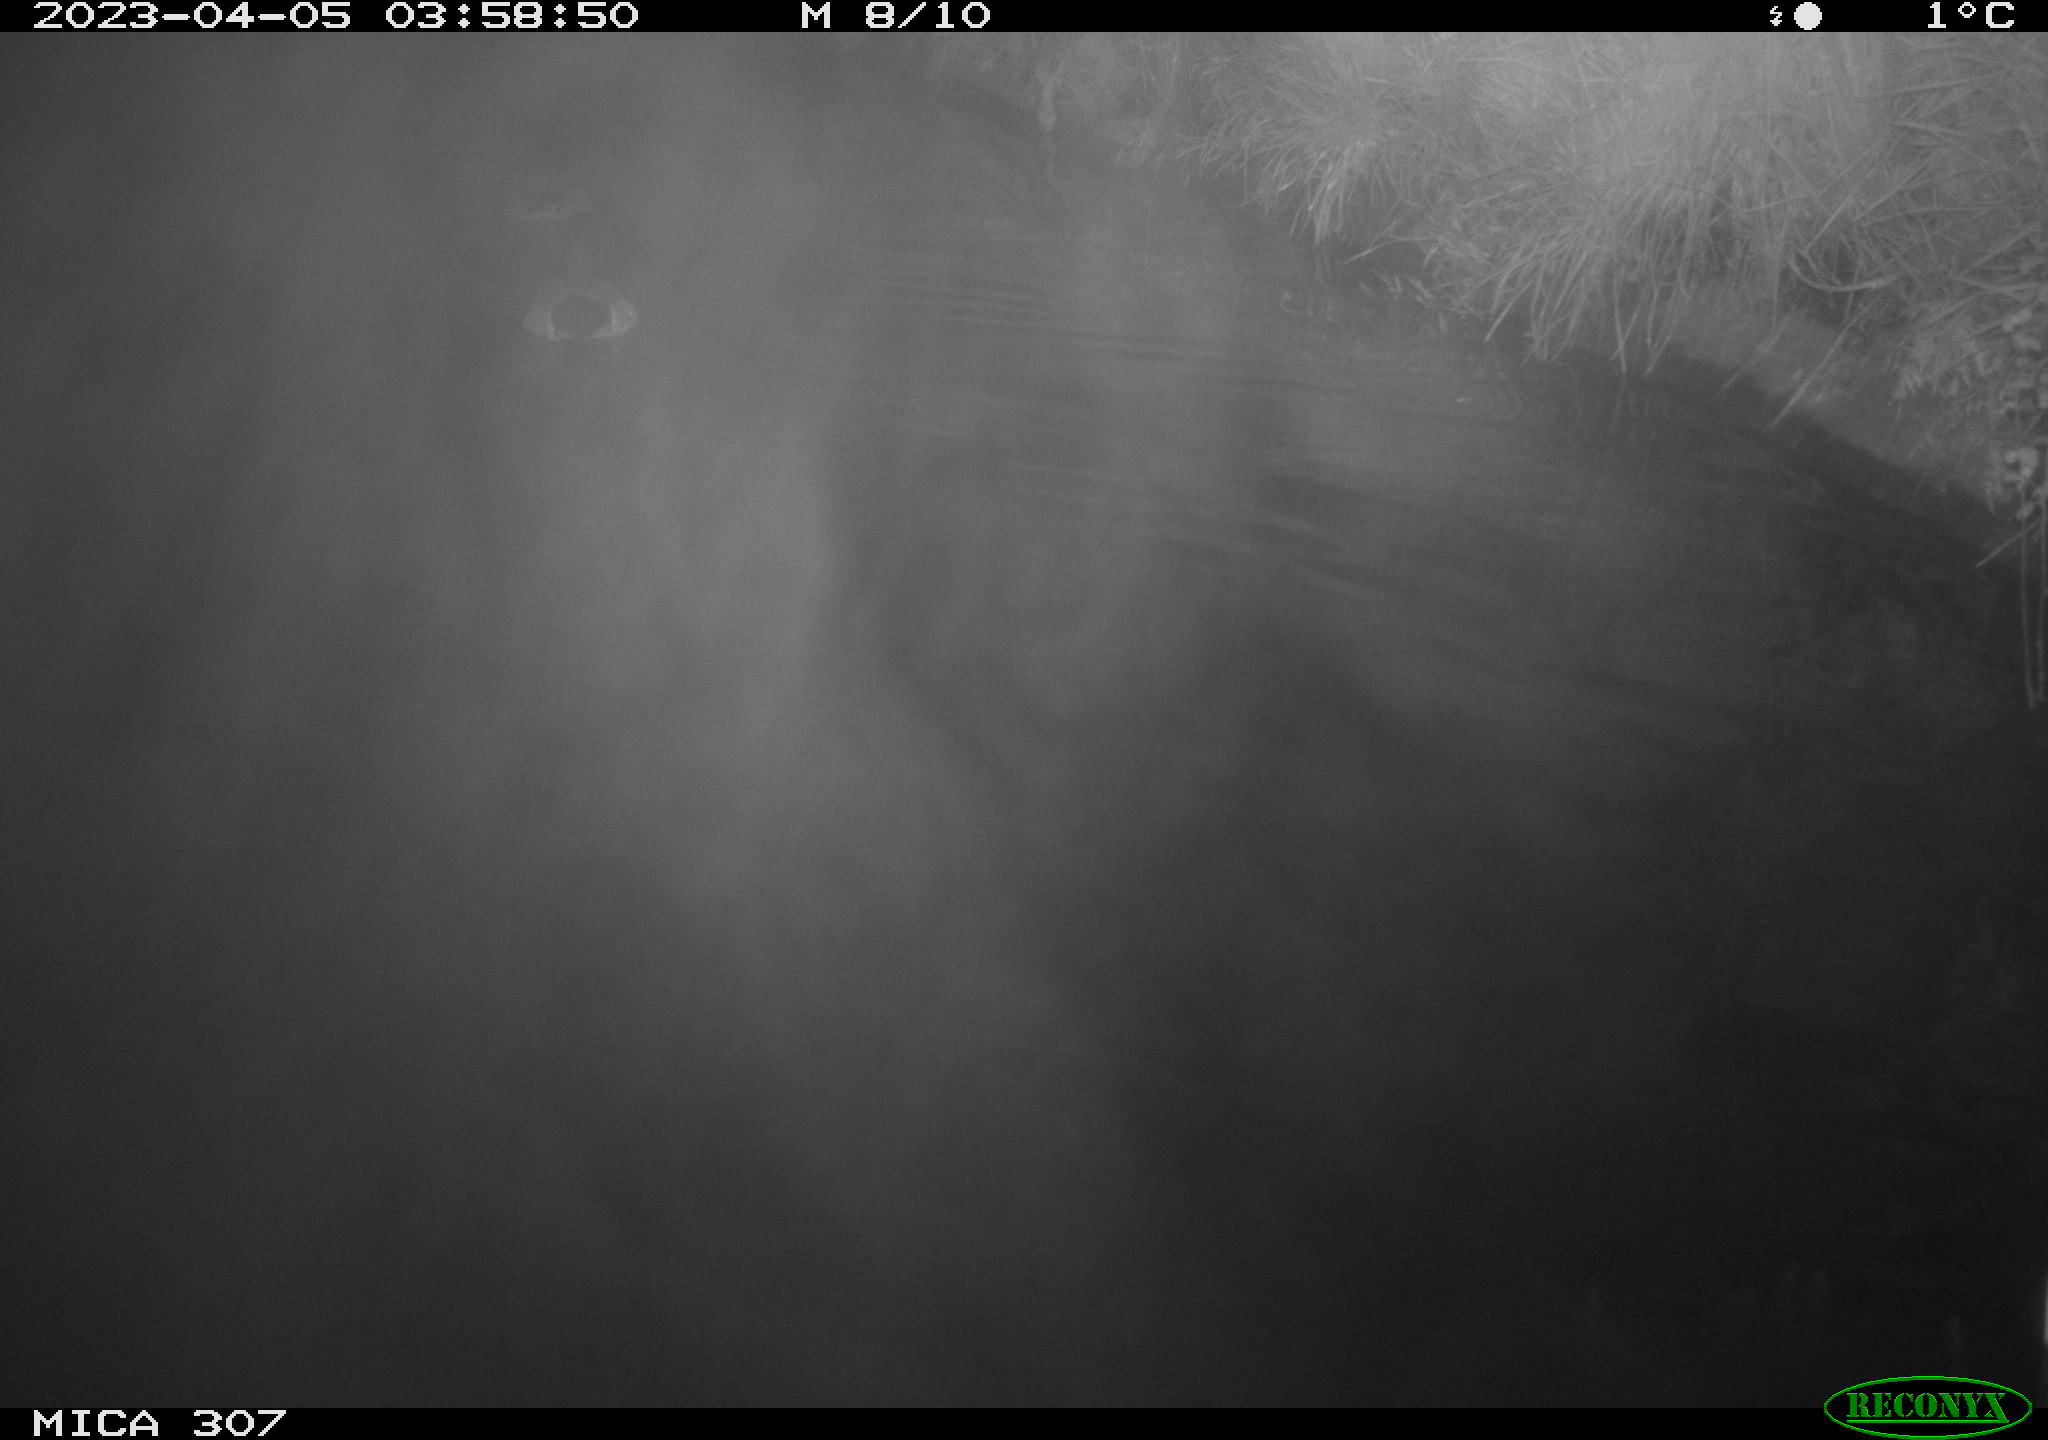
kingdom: Animalia
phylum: Chordata
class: Mammalia
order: Rodentia
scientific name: Rodentia
